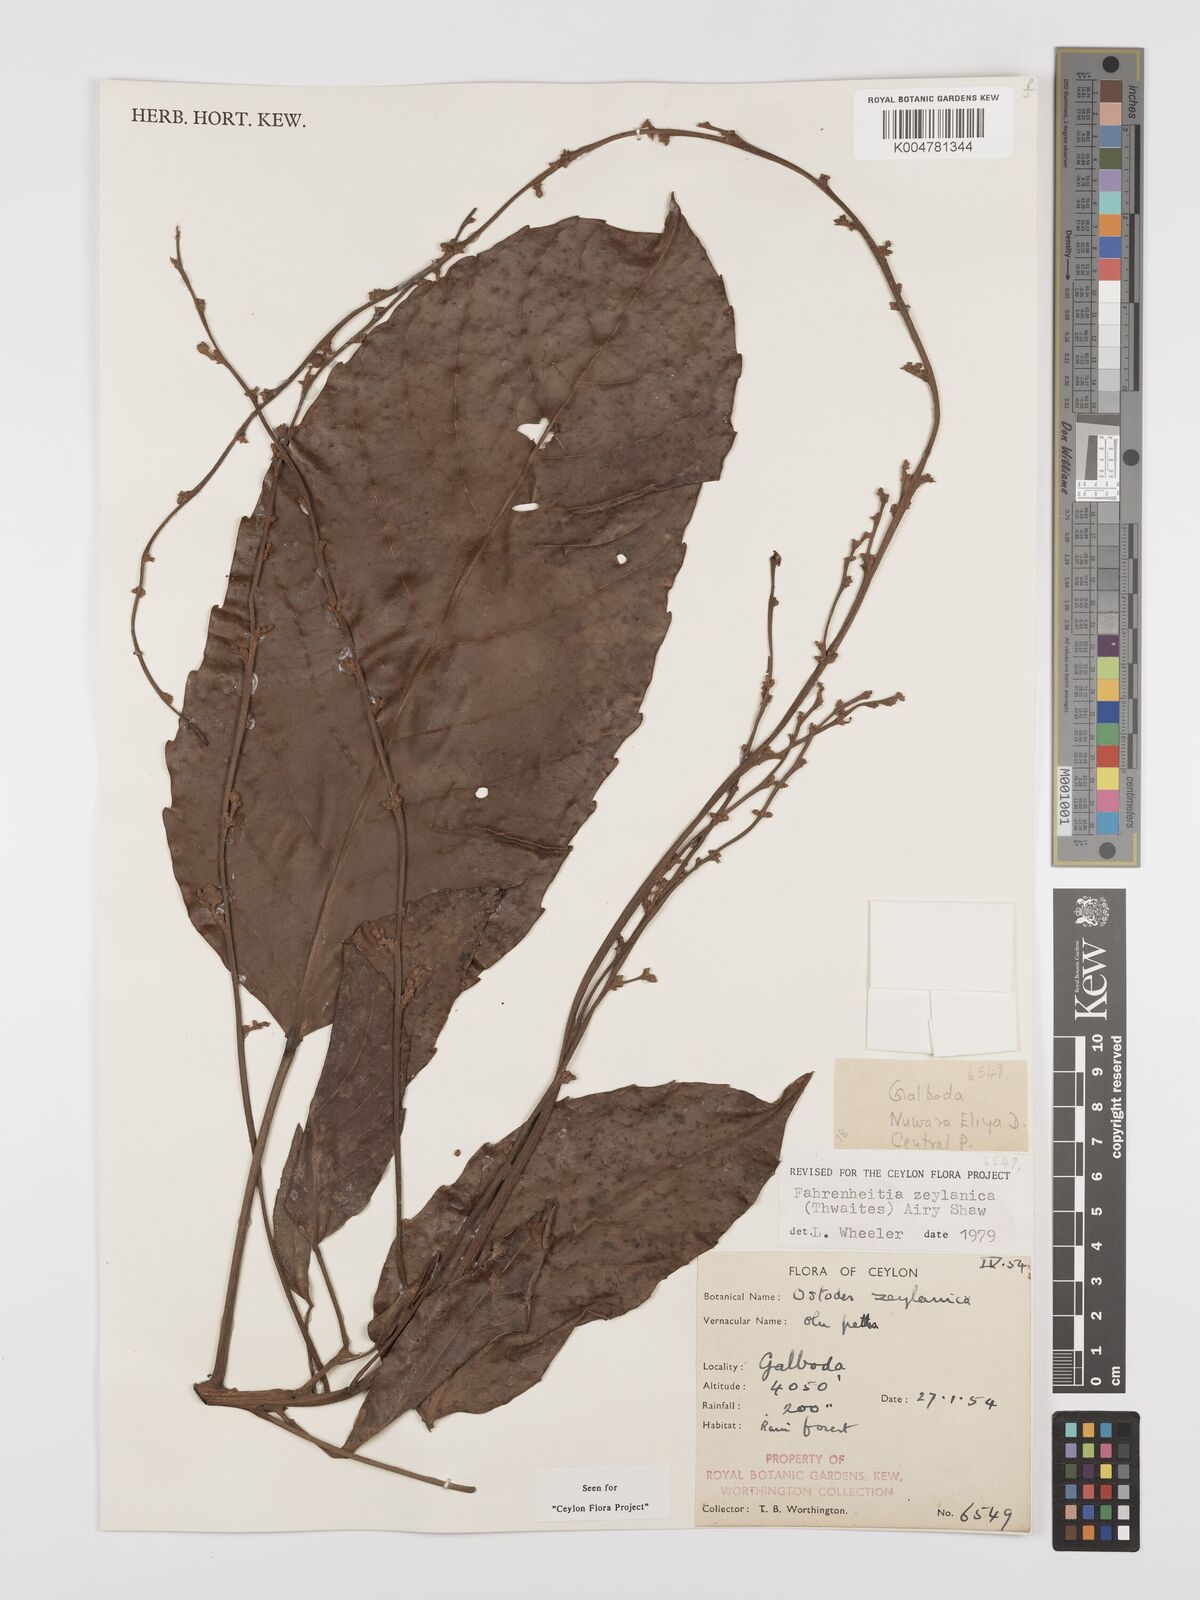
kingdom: Plantae
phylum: Tracheophyta
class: Magnoliopsida
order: Malpighiales
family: Euphorbiaceae
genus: Paracroton
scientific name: Paracroton zeylanicus
